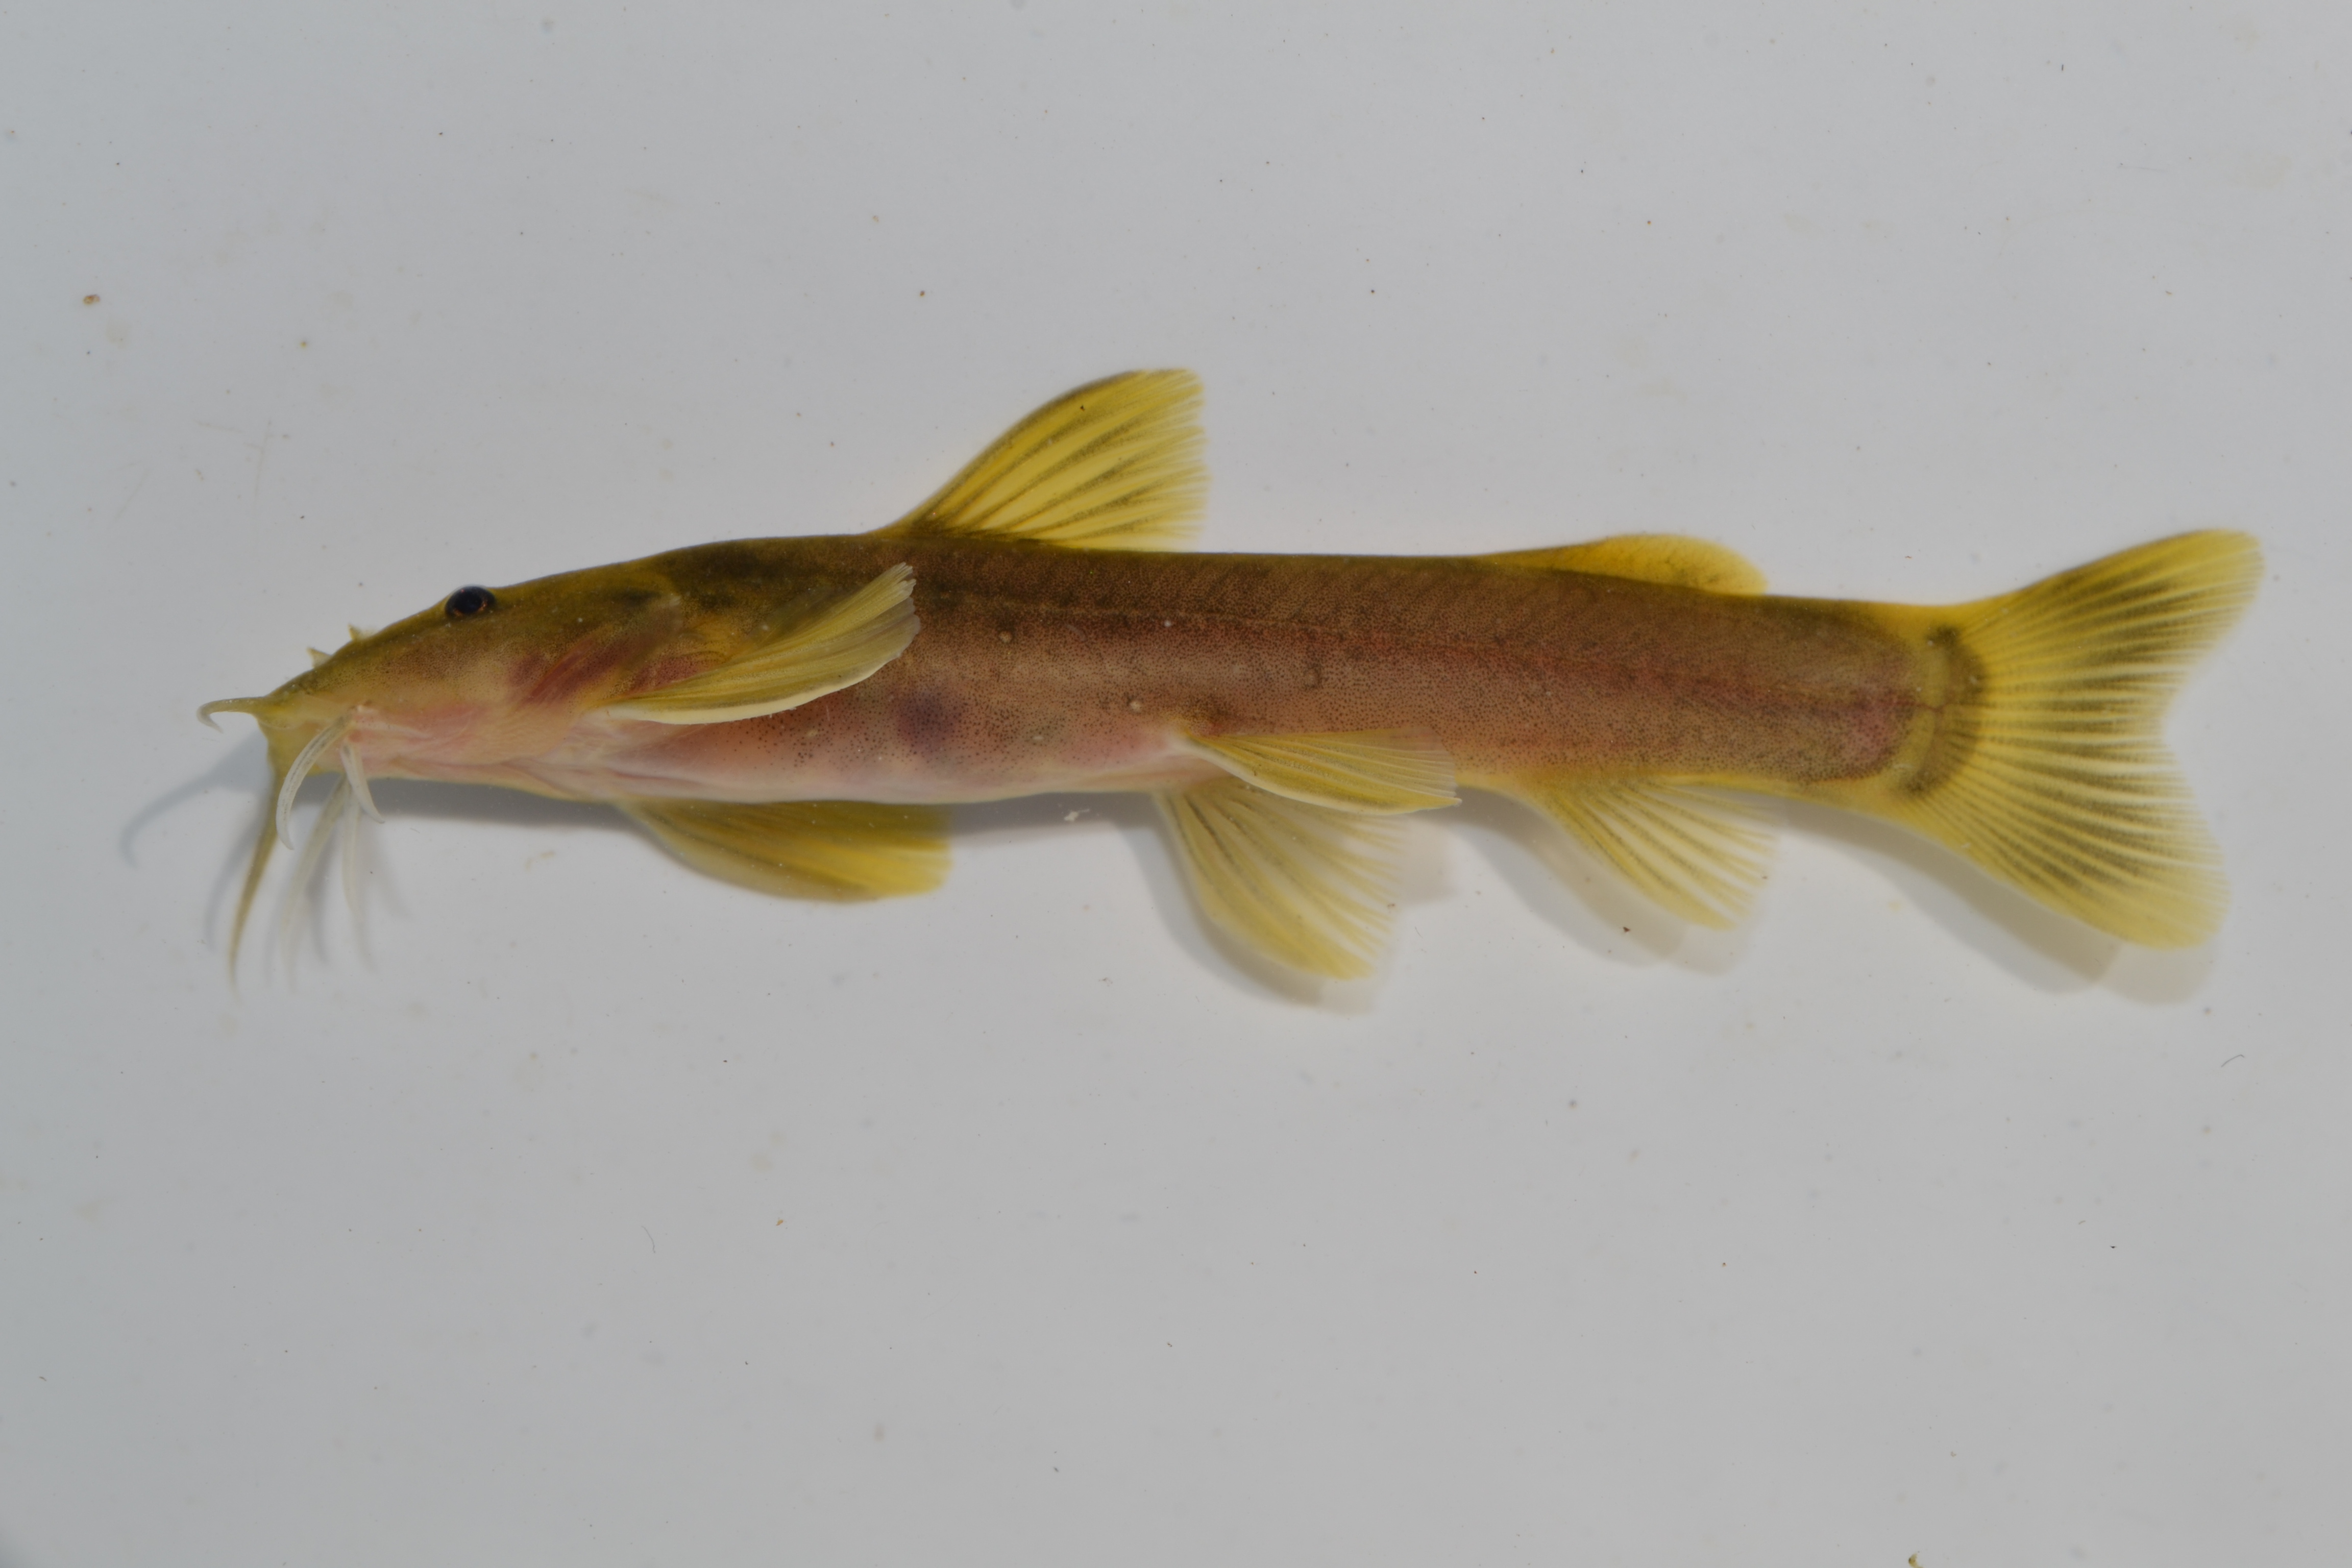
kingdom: Animalia
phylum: Chordata
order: Siluriformes
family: Amphiliidae
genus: Amphilius
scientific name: Amphilius uranoscopus
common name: Stargazer mountain catfish
